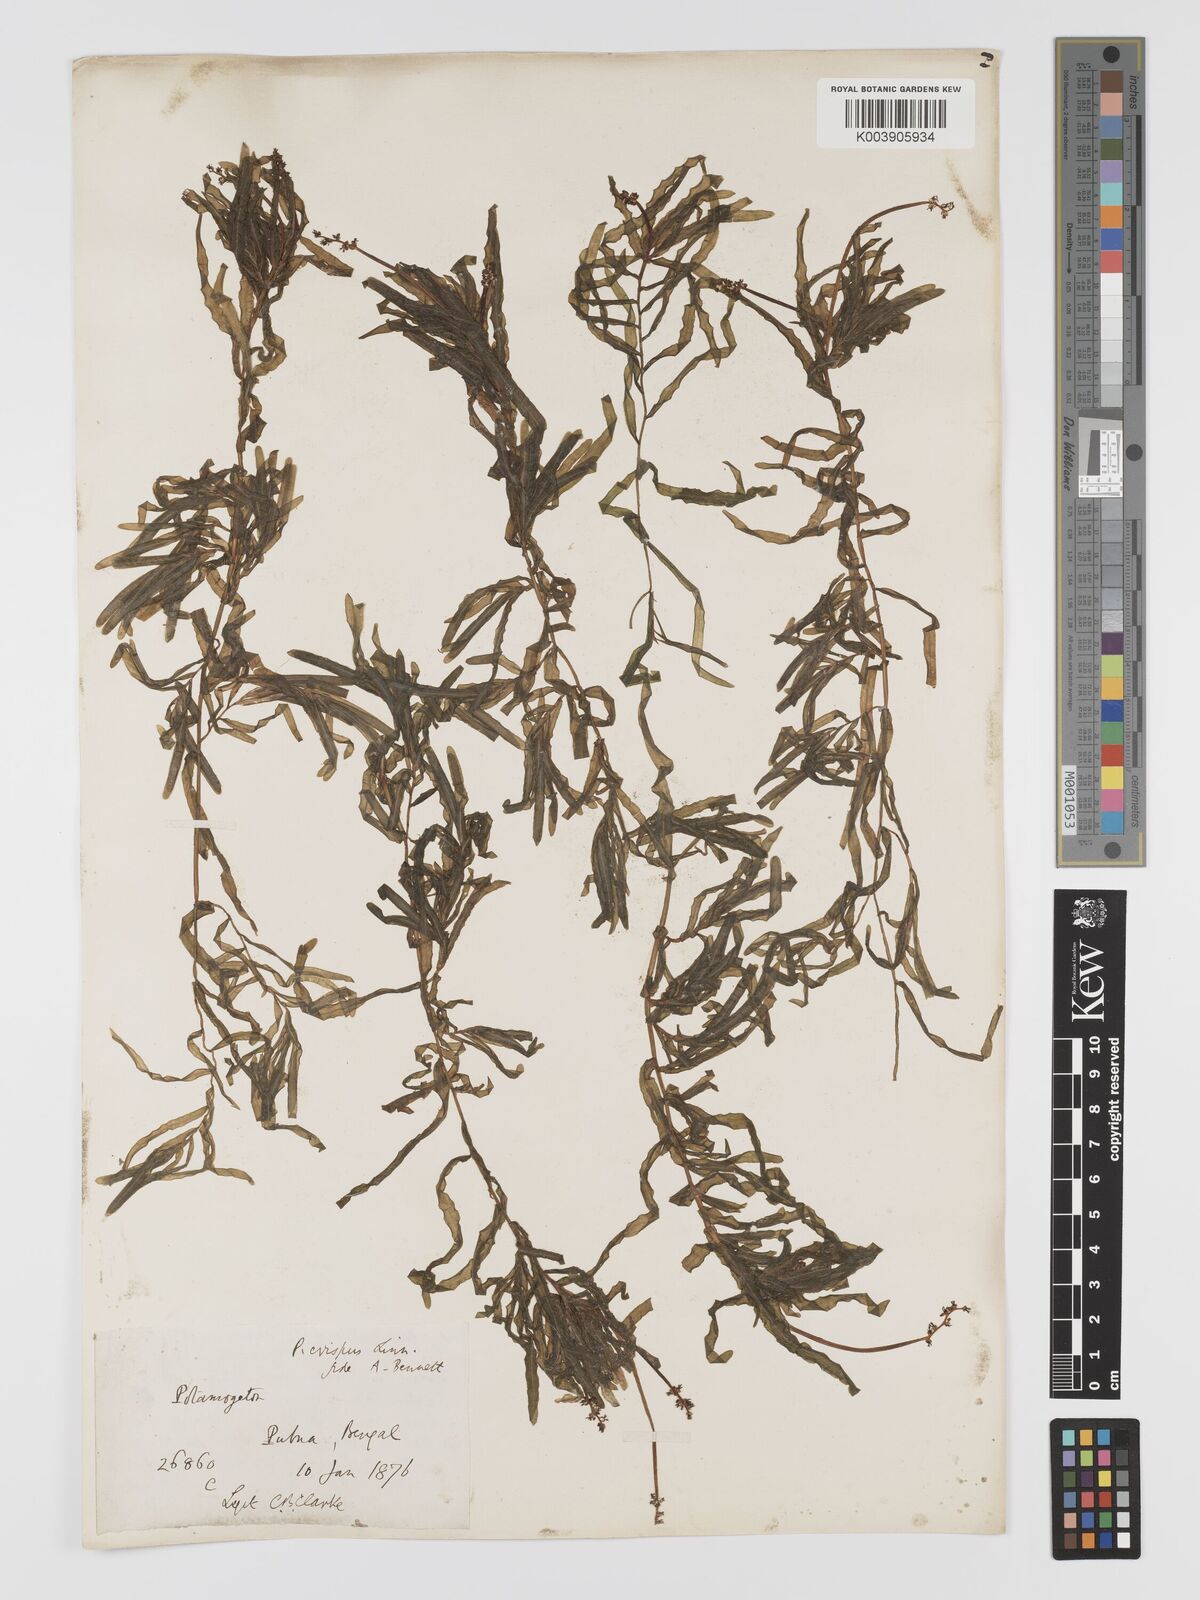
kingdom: Plantae
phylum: Tracheophyta
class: Liliopsida
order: Alismatales
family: Potamogetonaceae
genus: Potamogeton
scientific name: Potamogeton crispus
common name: Curled pondweed
